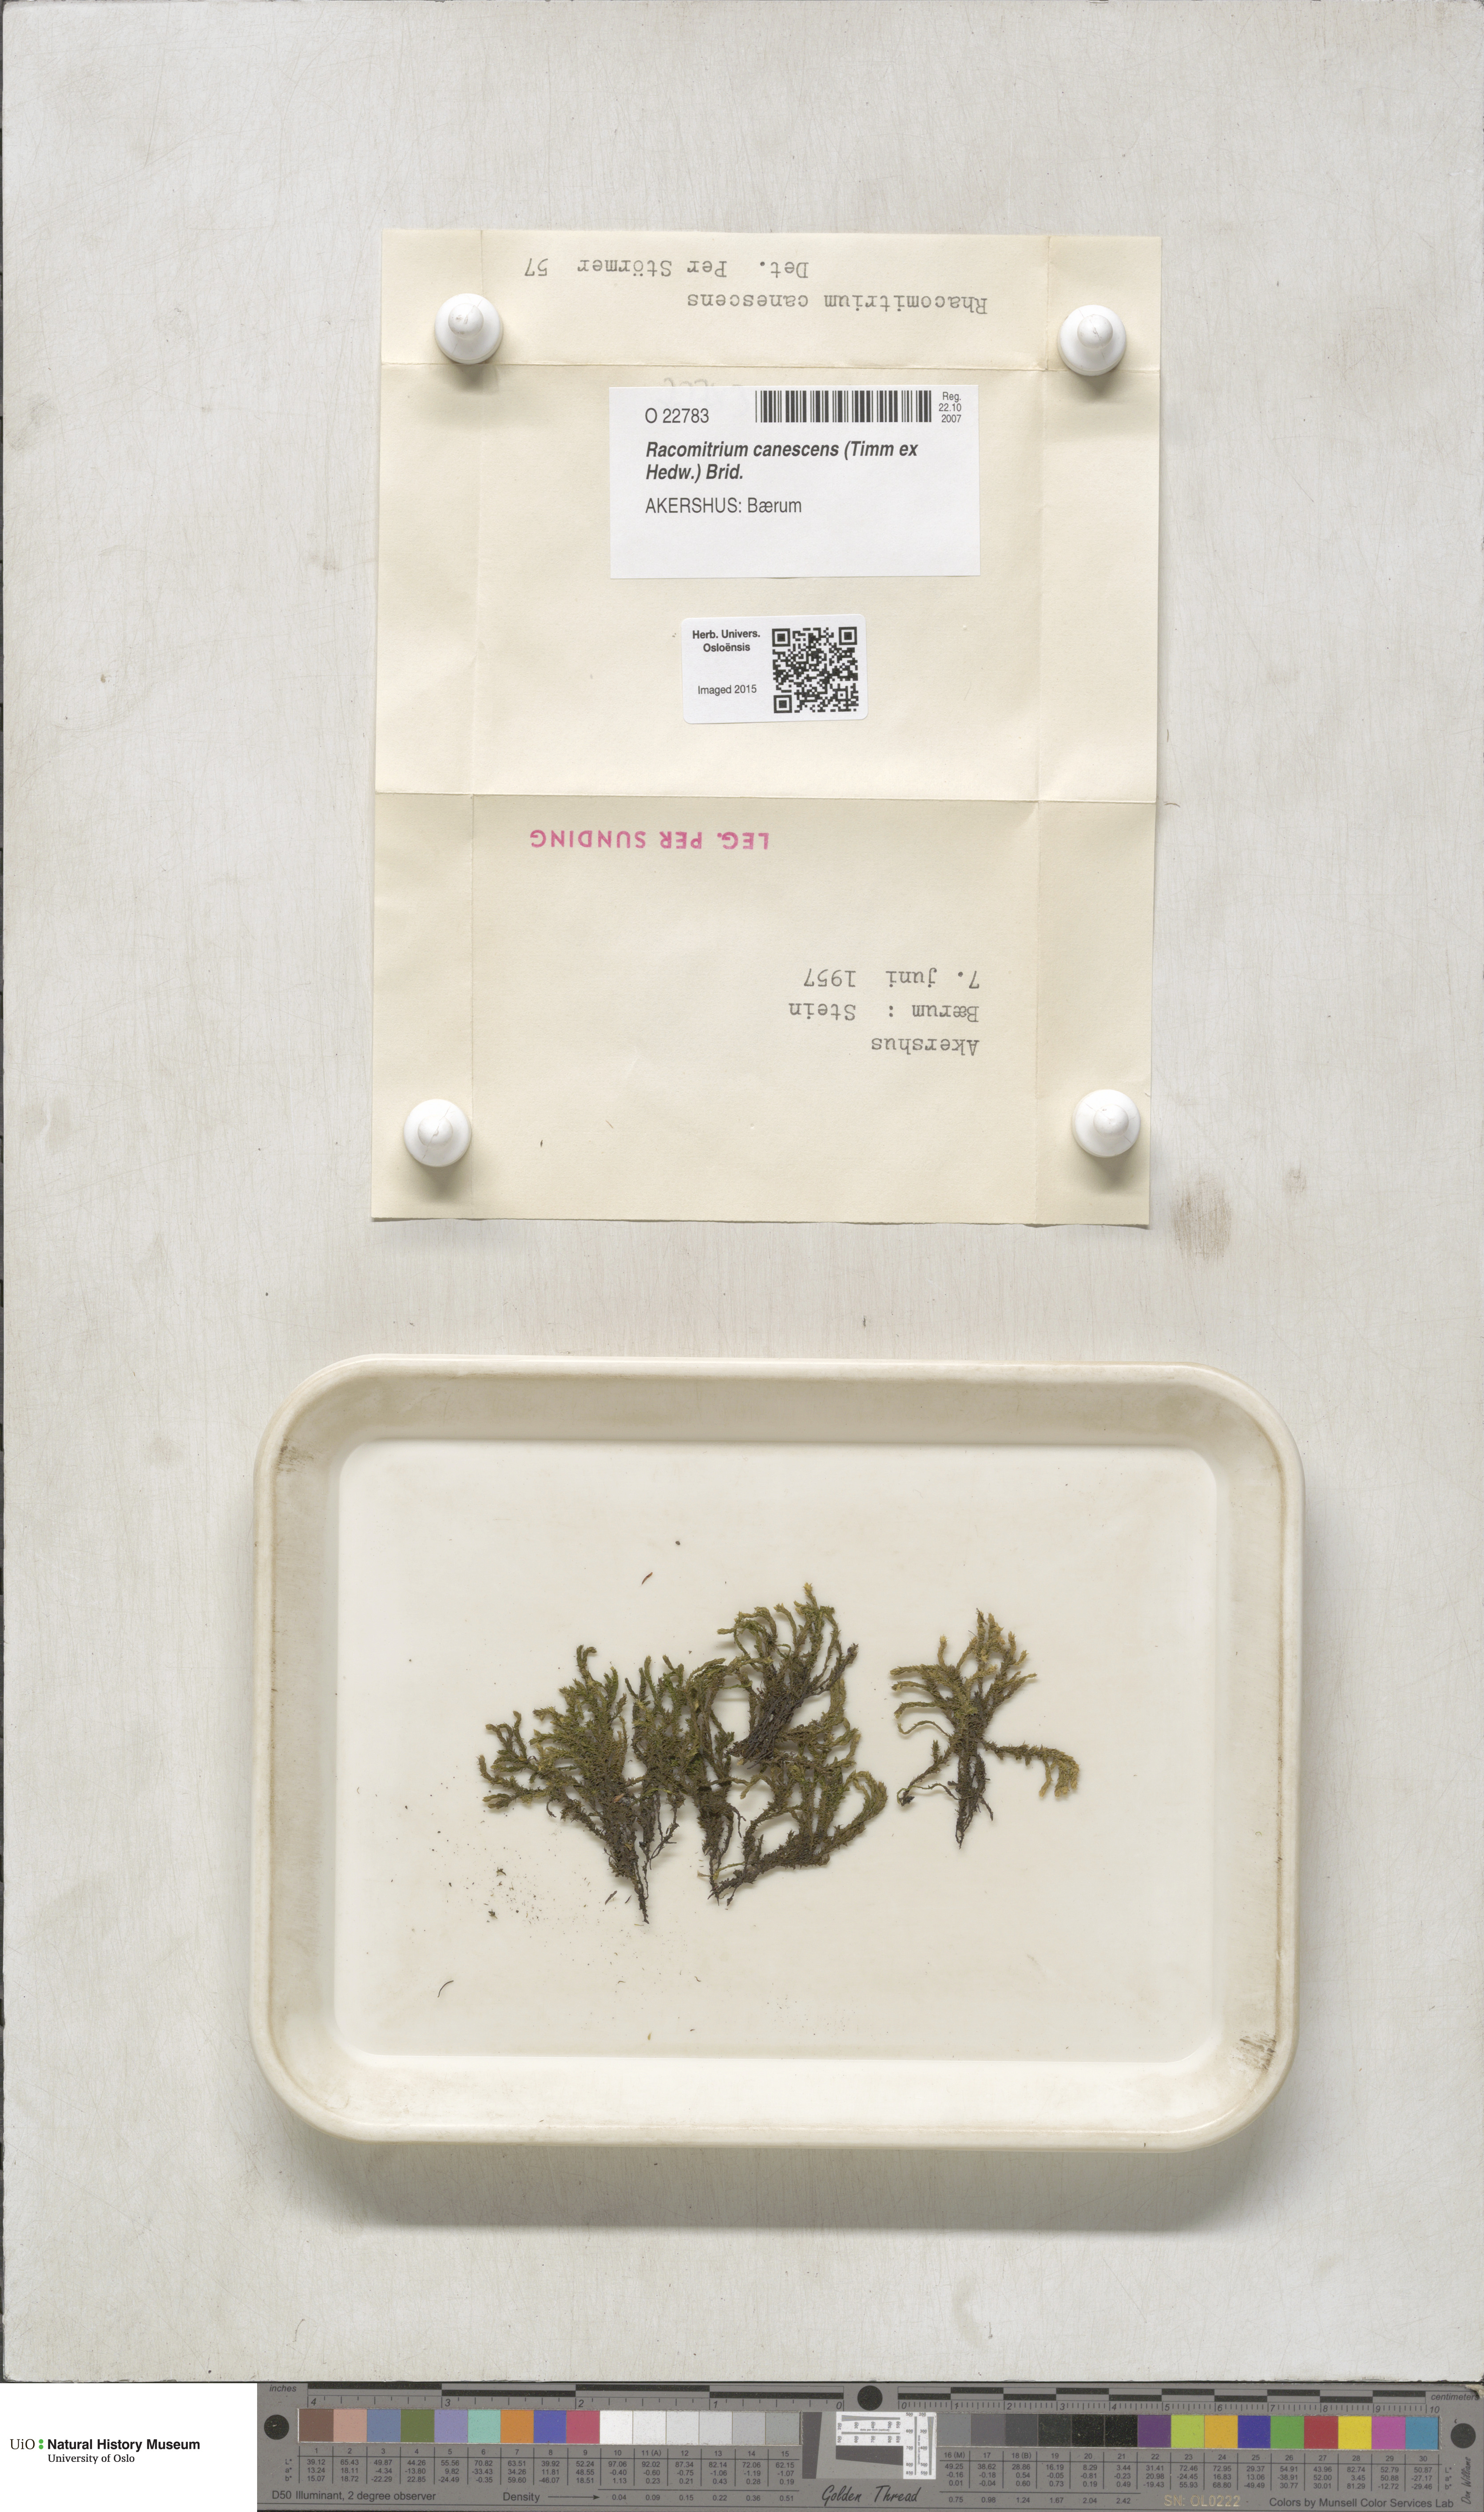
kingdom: Plantae
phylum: Bryophyta
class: Bryopsida
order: Grimmiales
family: Grimmiaceae
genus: Niphotrichum
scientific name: Niphotrichum canescens
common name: Hoary fringe-moss
